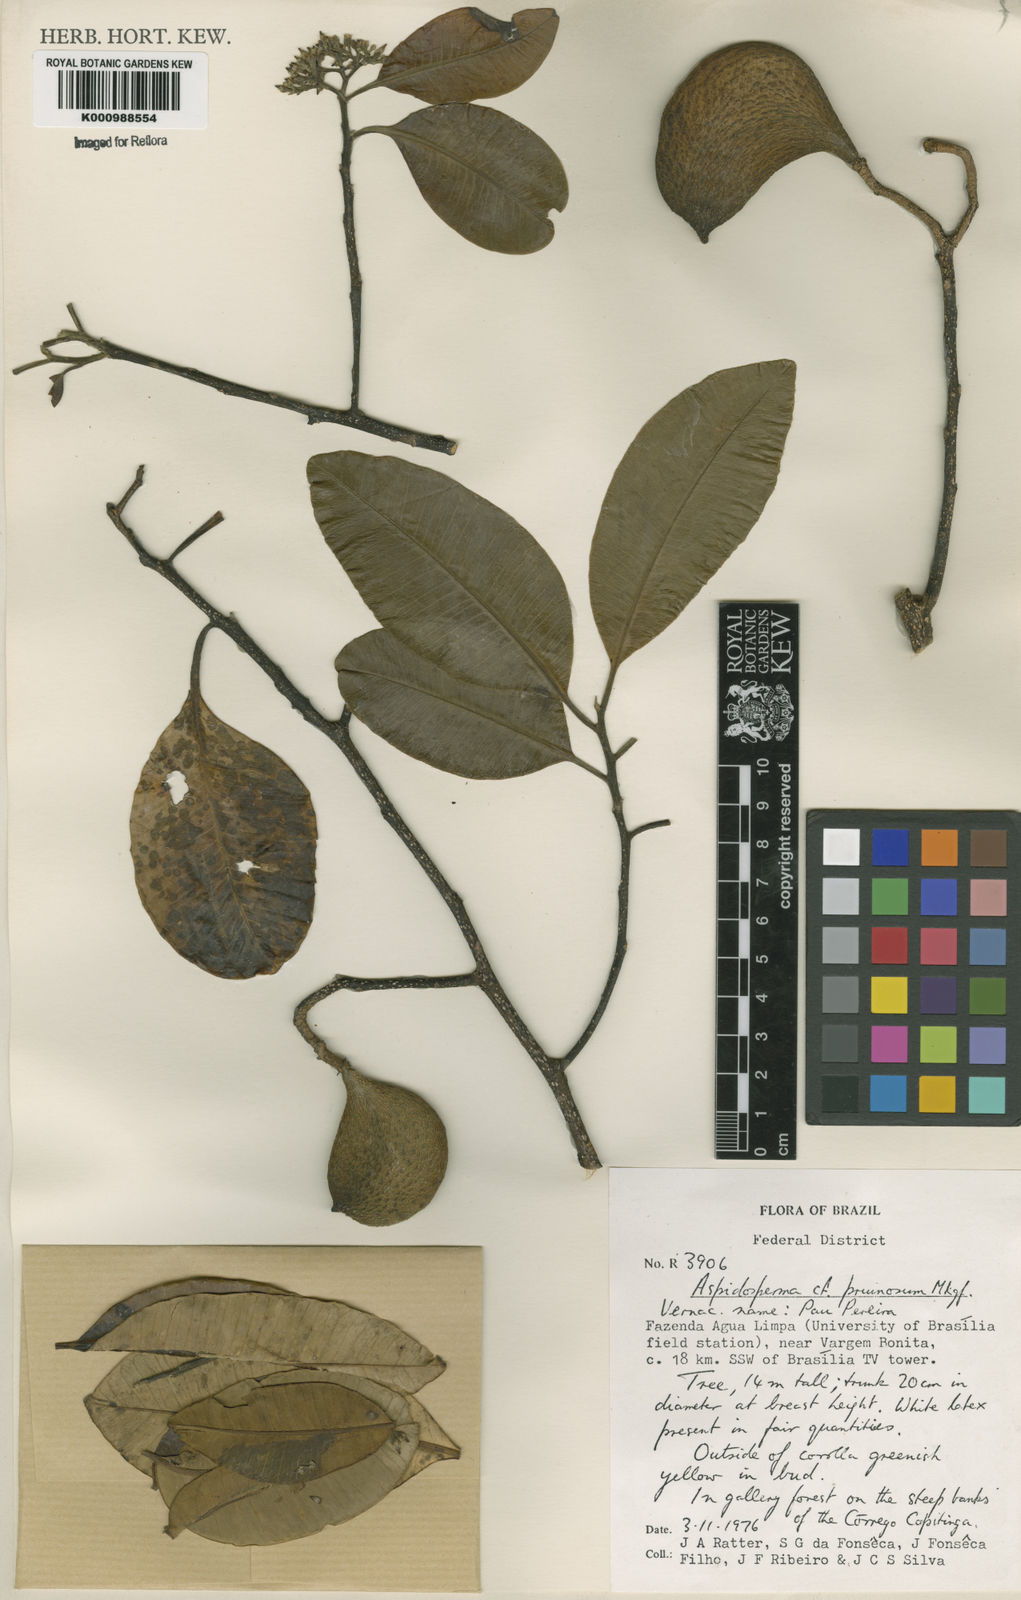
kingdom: Plantae
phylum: Tracheophyta
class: Magnoliopsida
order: Gentianales
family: Apocynaceae
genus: Aspidosperma
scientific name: Aspidosperma eburneum
